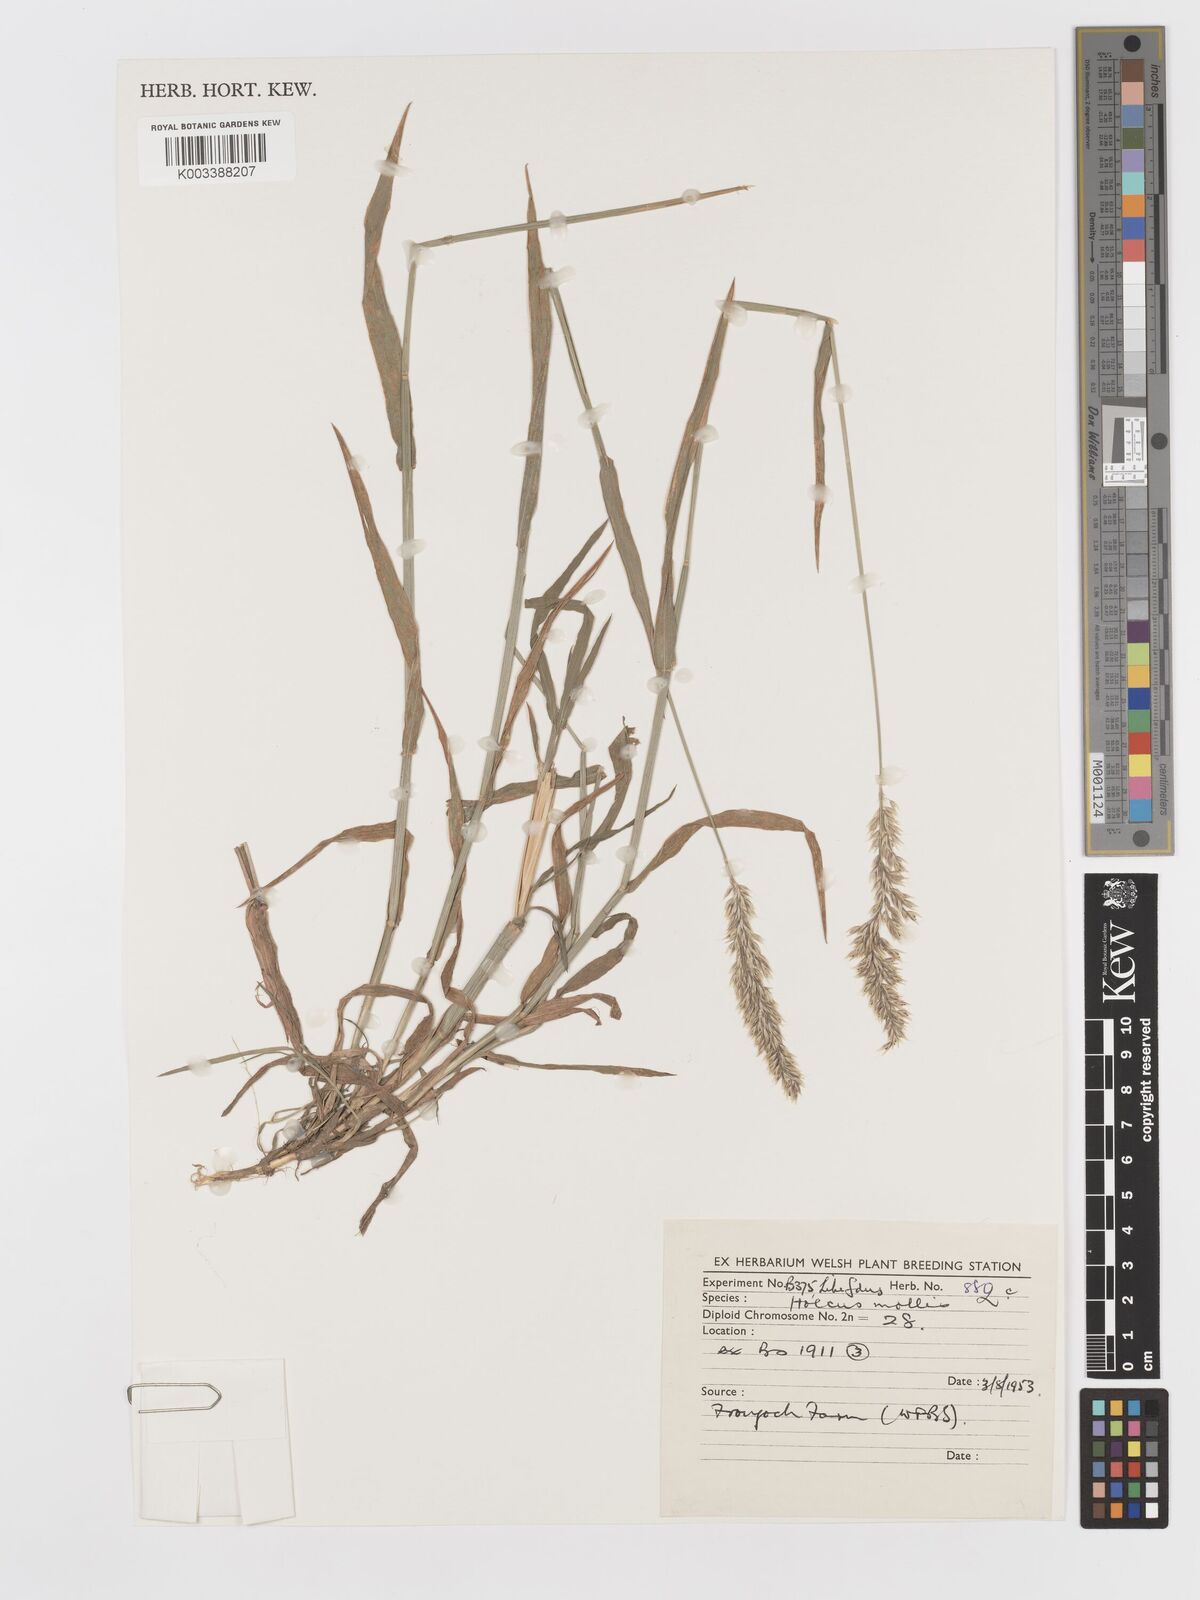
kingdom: Plantae
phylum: Tracheophyta
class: Liliopsida
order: Poales
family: Poaceae
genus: Holcus
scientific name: Holcus mollis
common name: Creeping velvetgrass
